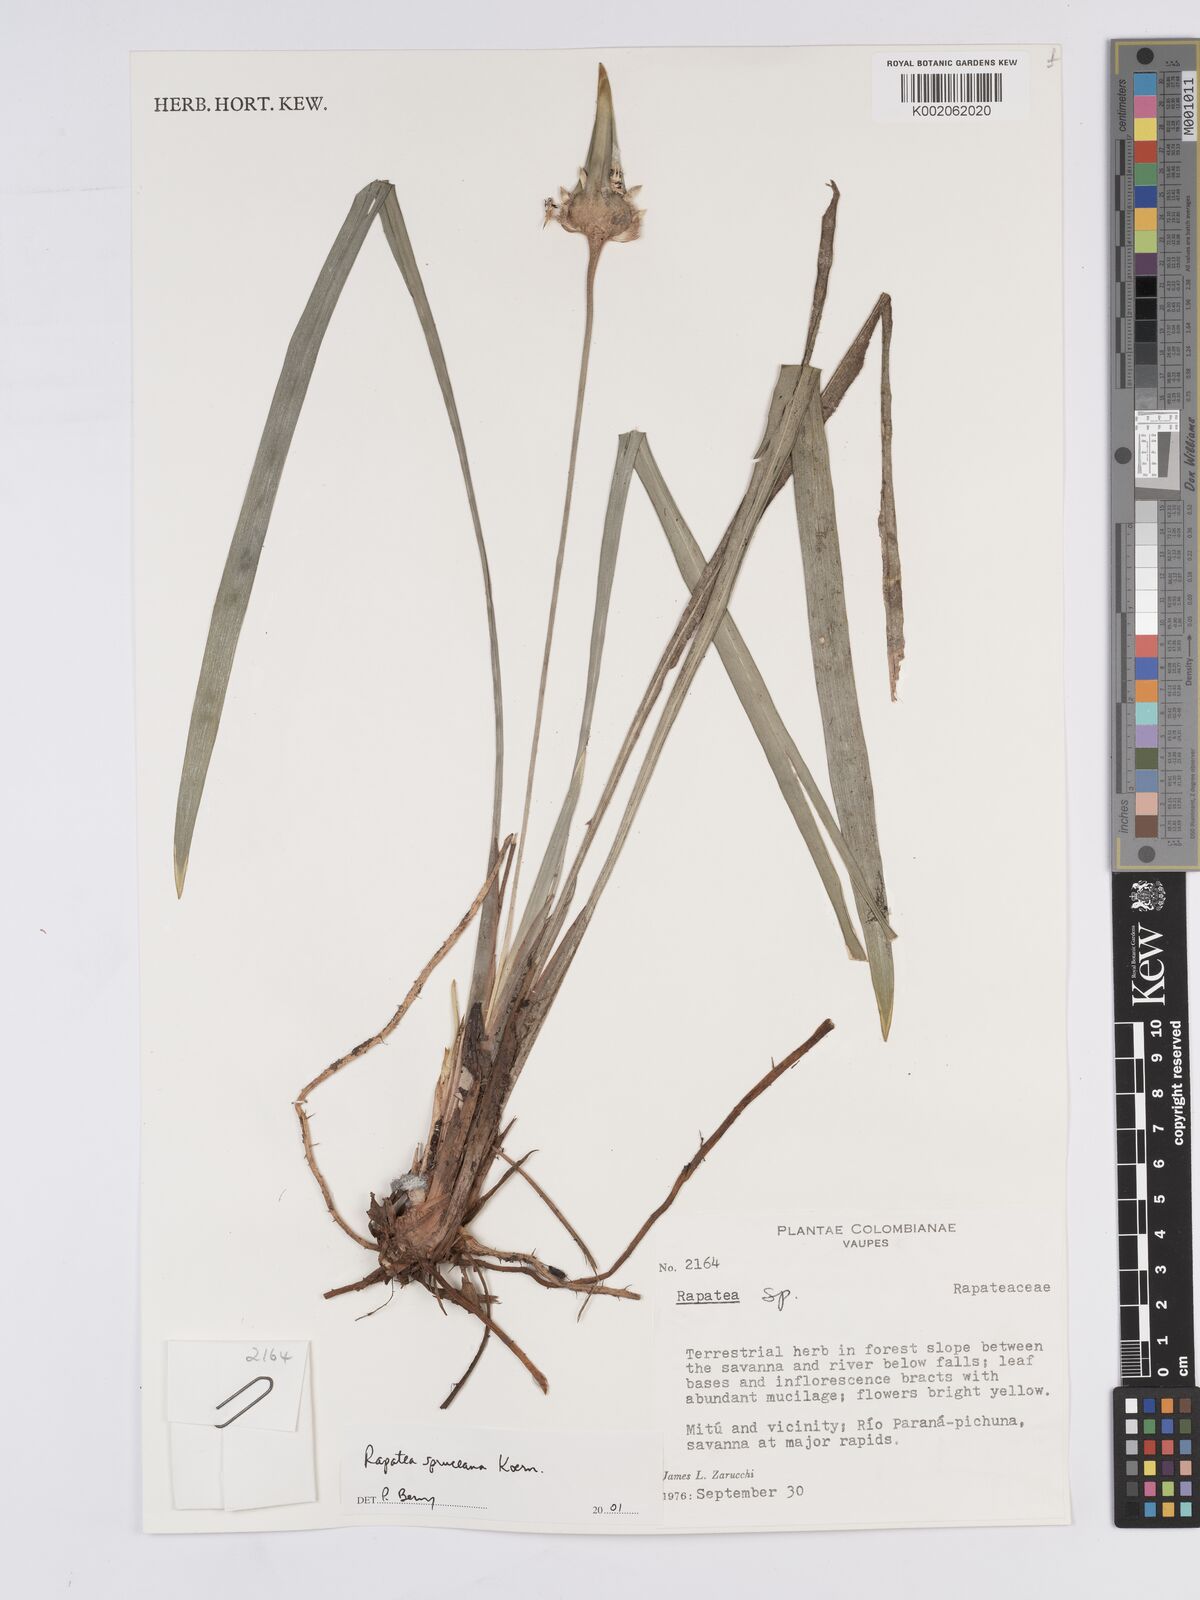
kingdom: Plantae
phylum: Tracheophyta
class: Liliopsida
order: Poales
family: Rapateaceae
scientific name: Rapateaceae
